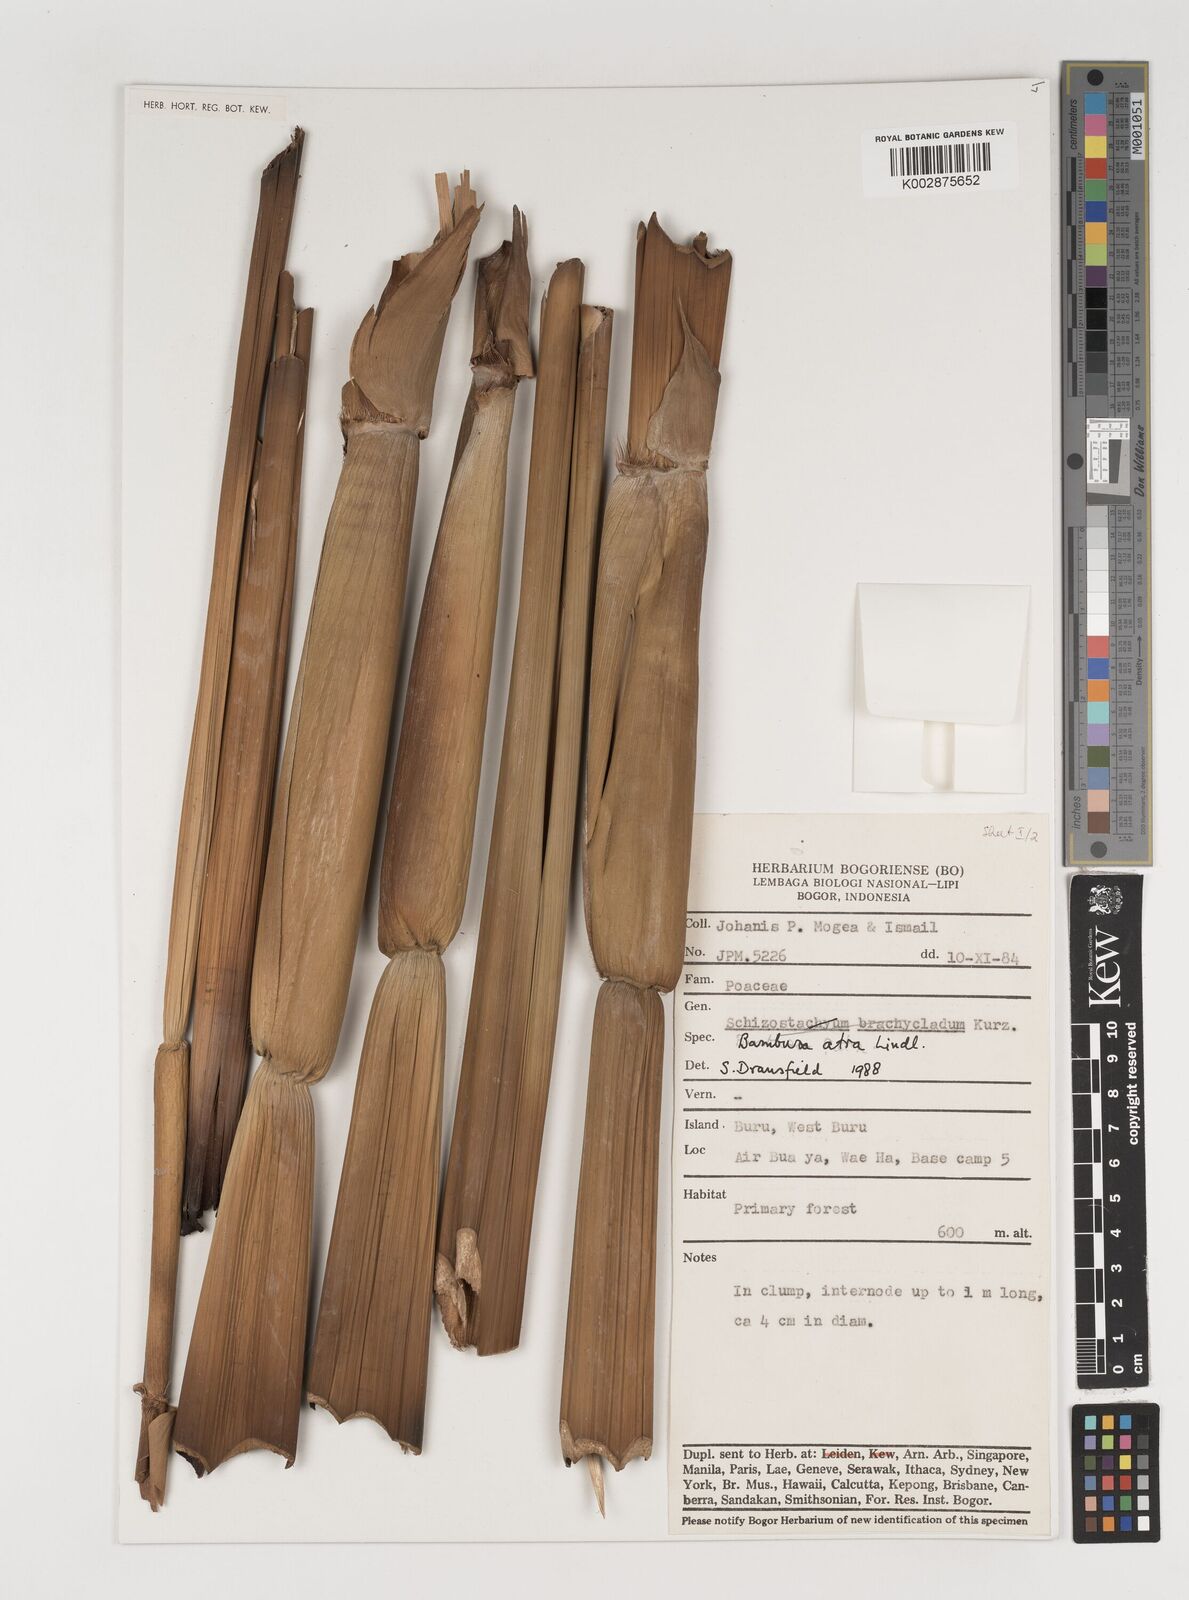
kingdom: Plantae
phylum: Tracheophyta
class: Liliopsida
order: Poales
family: Poaceae
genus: Neololeba
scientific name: Neololeba
